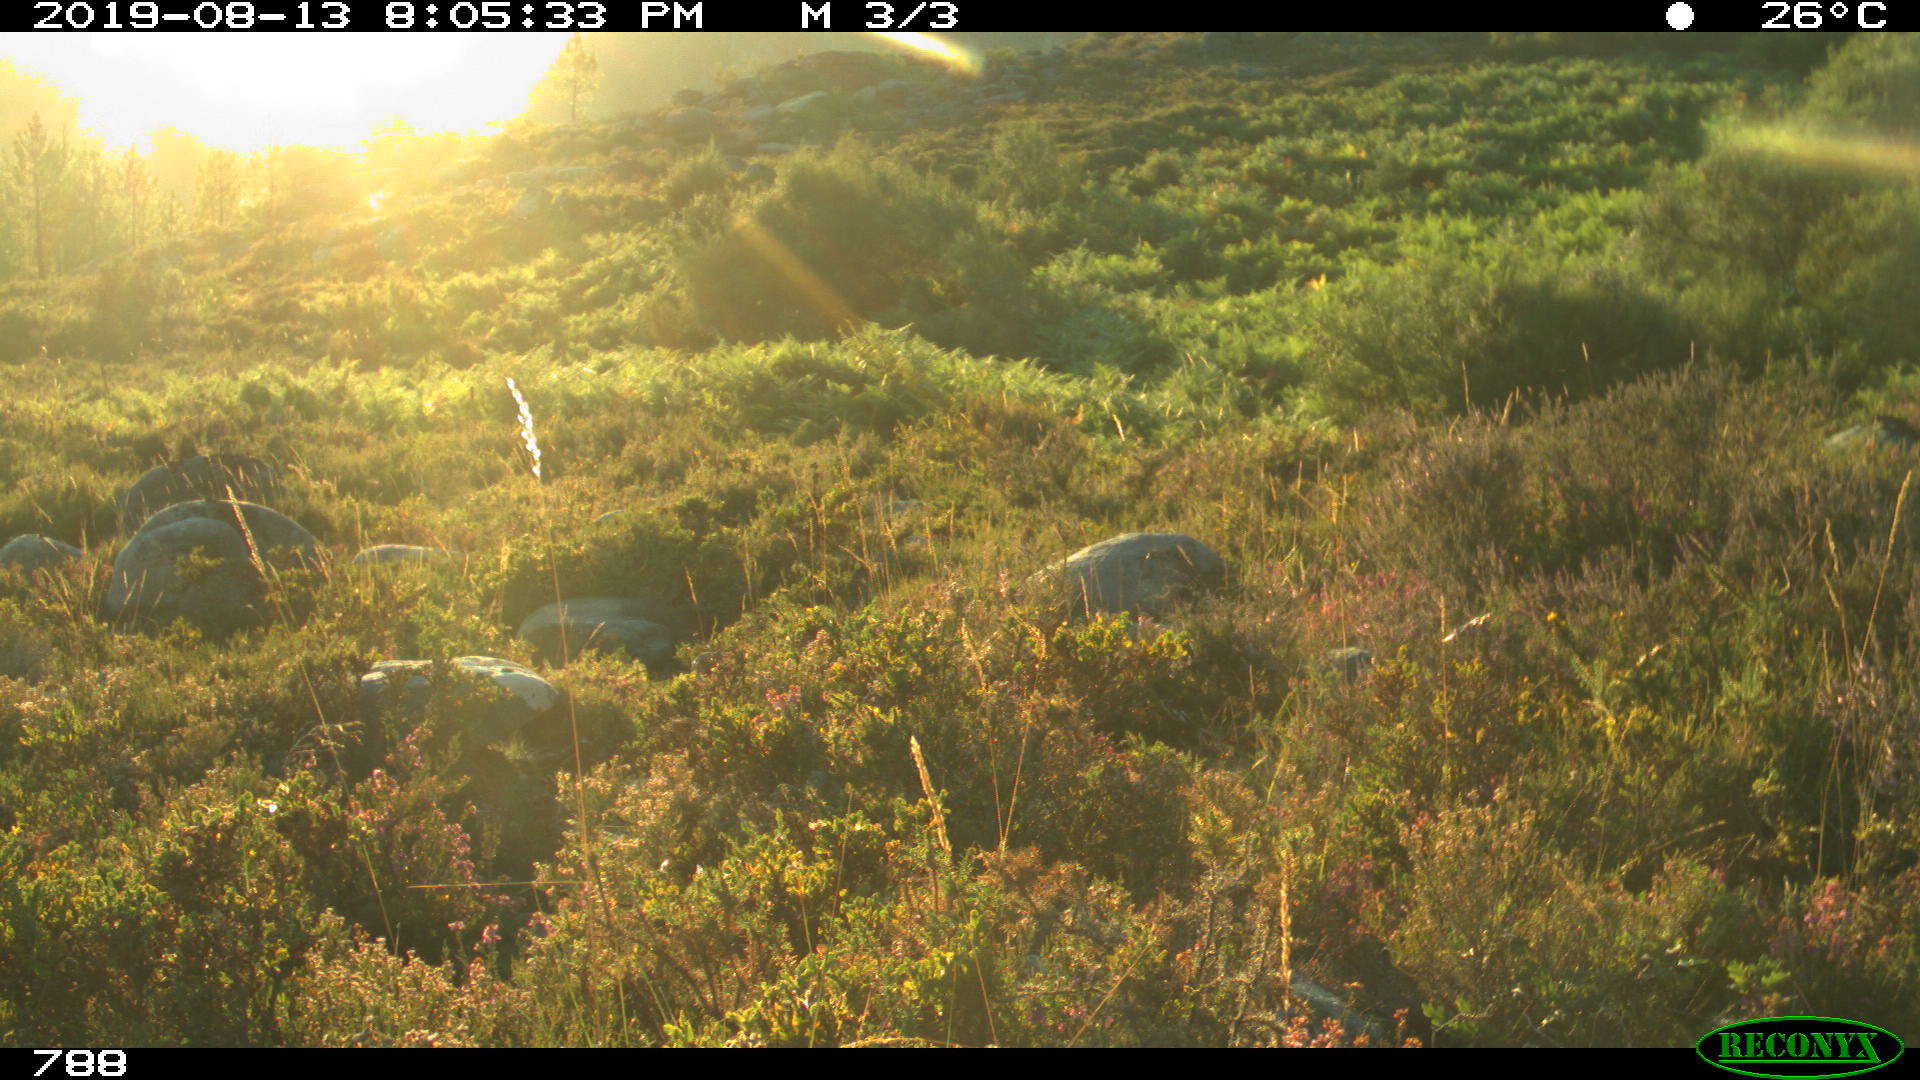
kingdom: Animalia
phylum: Chordata
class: Mammalia
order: Artiodactyla
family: Bovidae
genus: Bos
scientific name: Bos taurus
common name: Domesticated cattle
